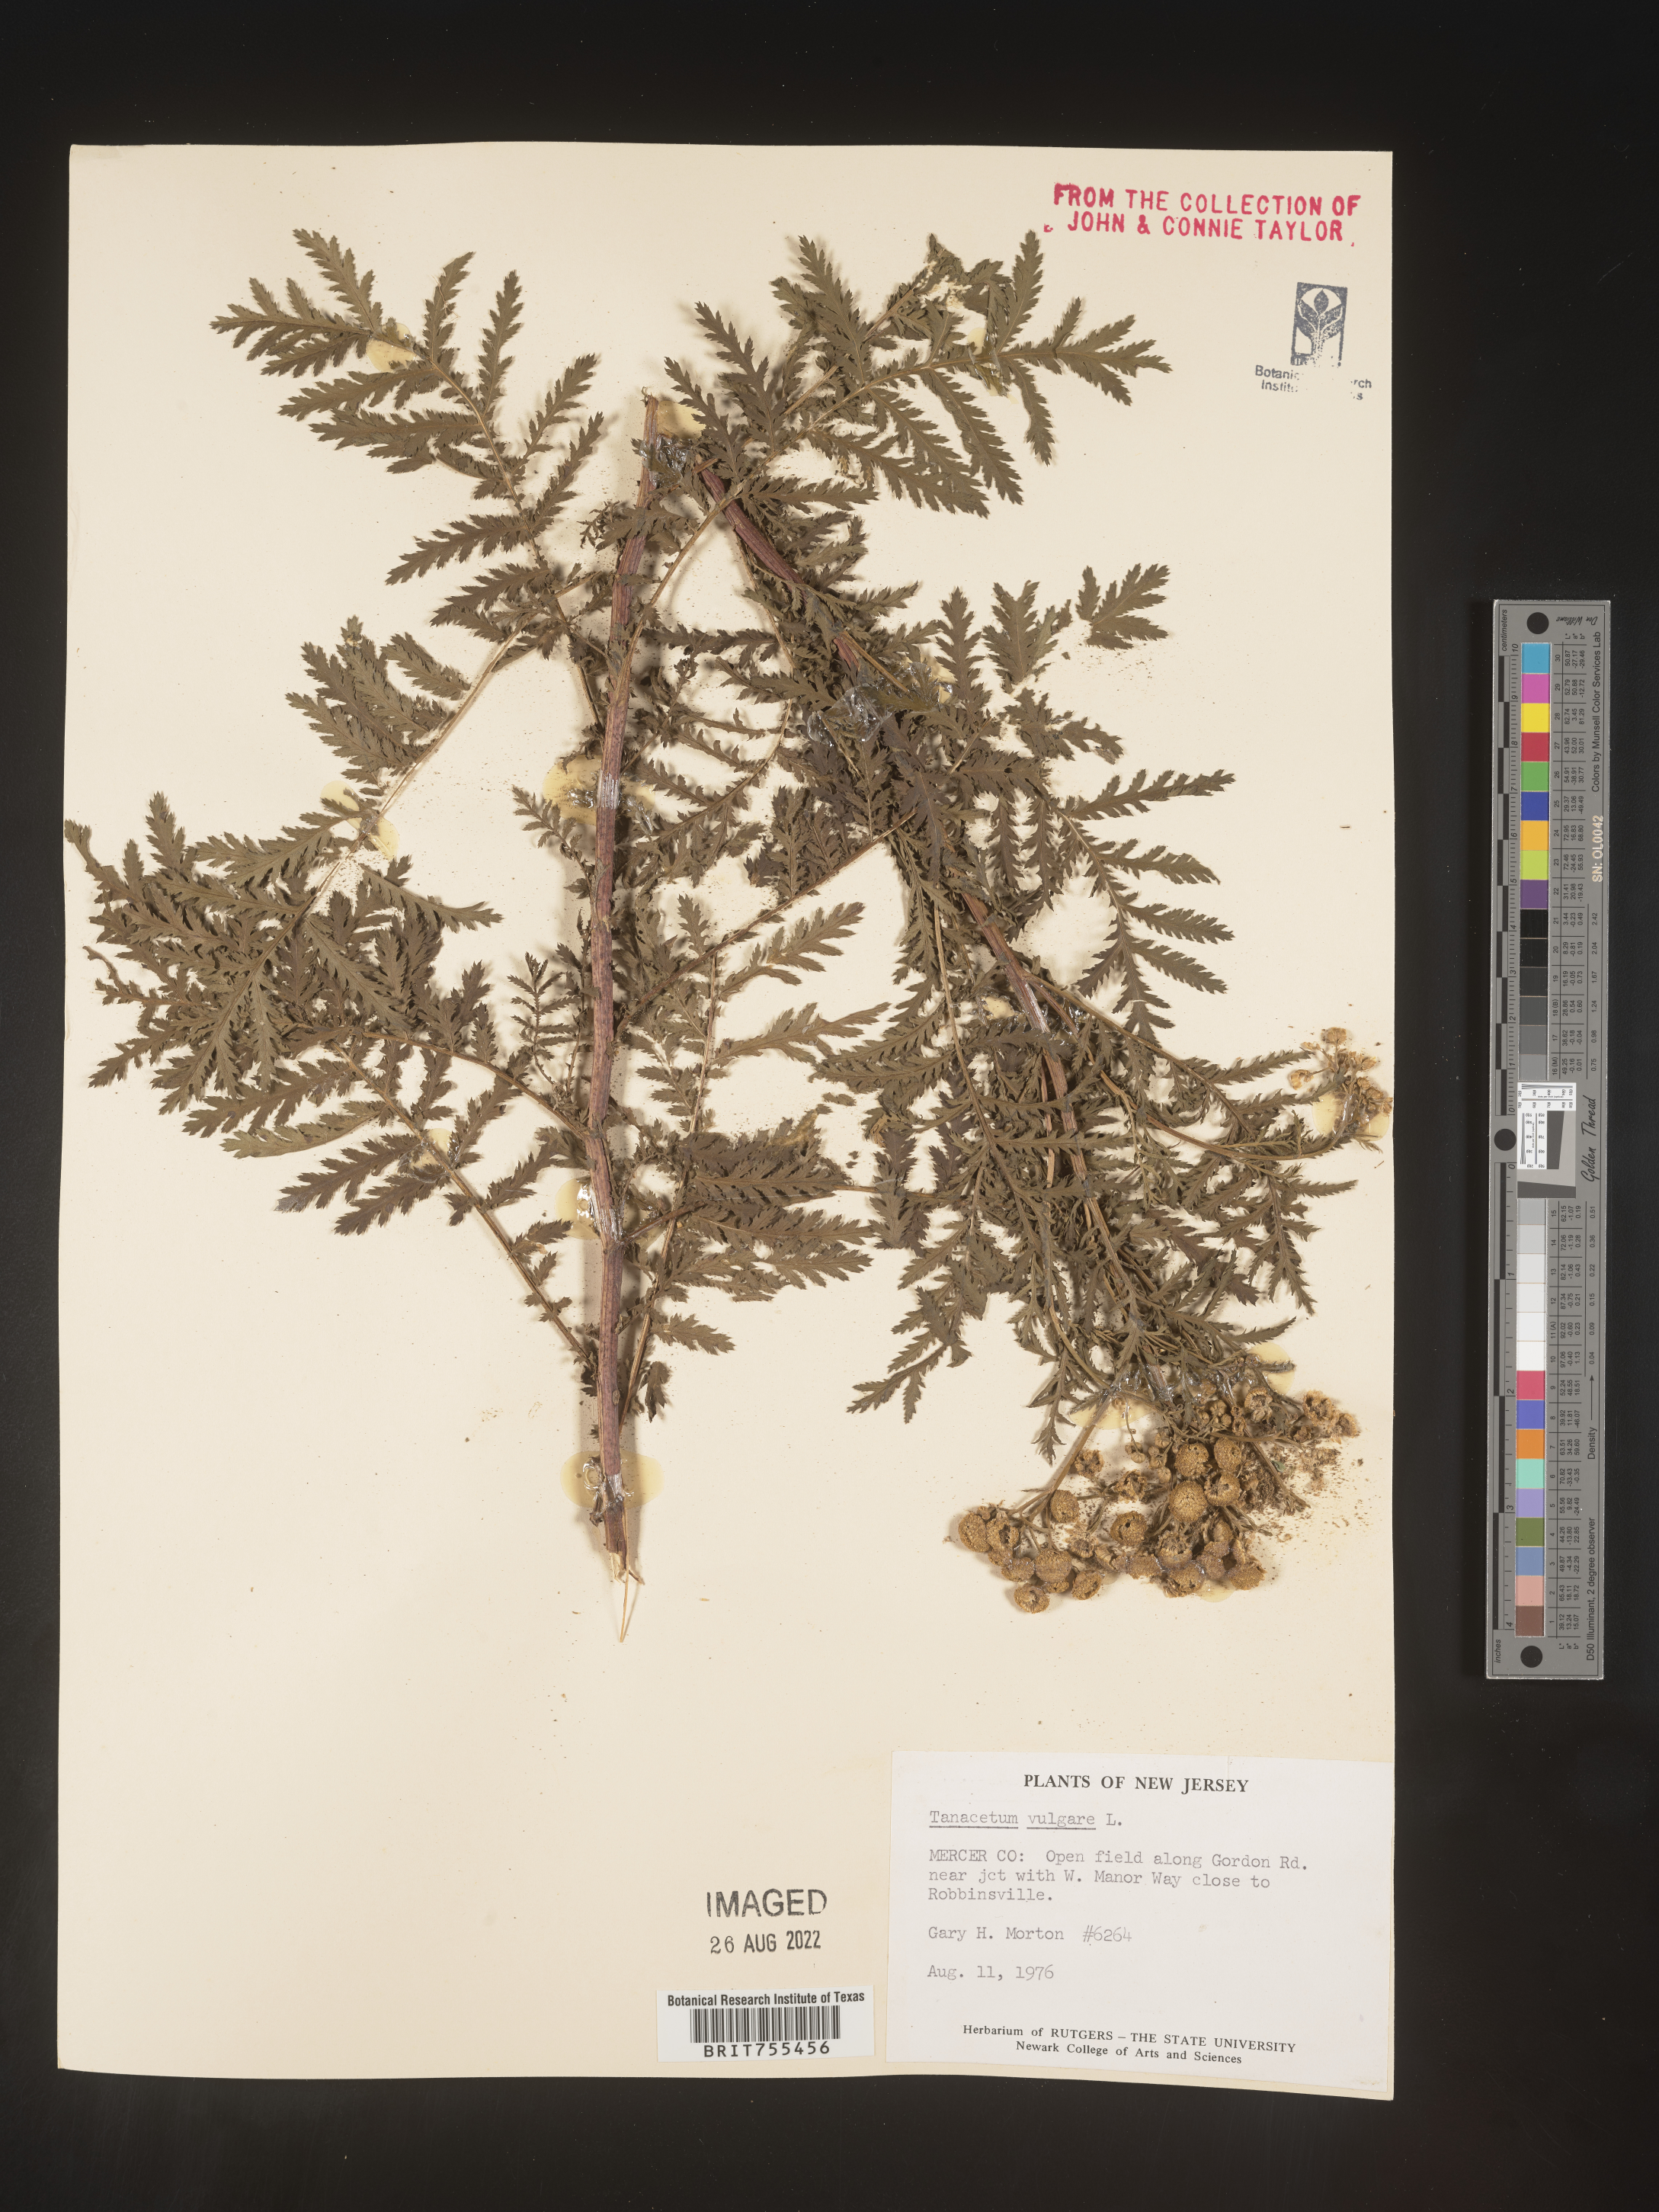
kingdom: Plantae
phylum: Tracheophyta
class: Magnoliopsida
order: Asterales
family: Asteraceae
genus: Tanacetum
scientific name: Tanacetum vulgare
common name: Common tansy
